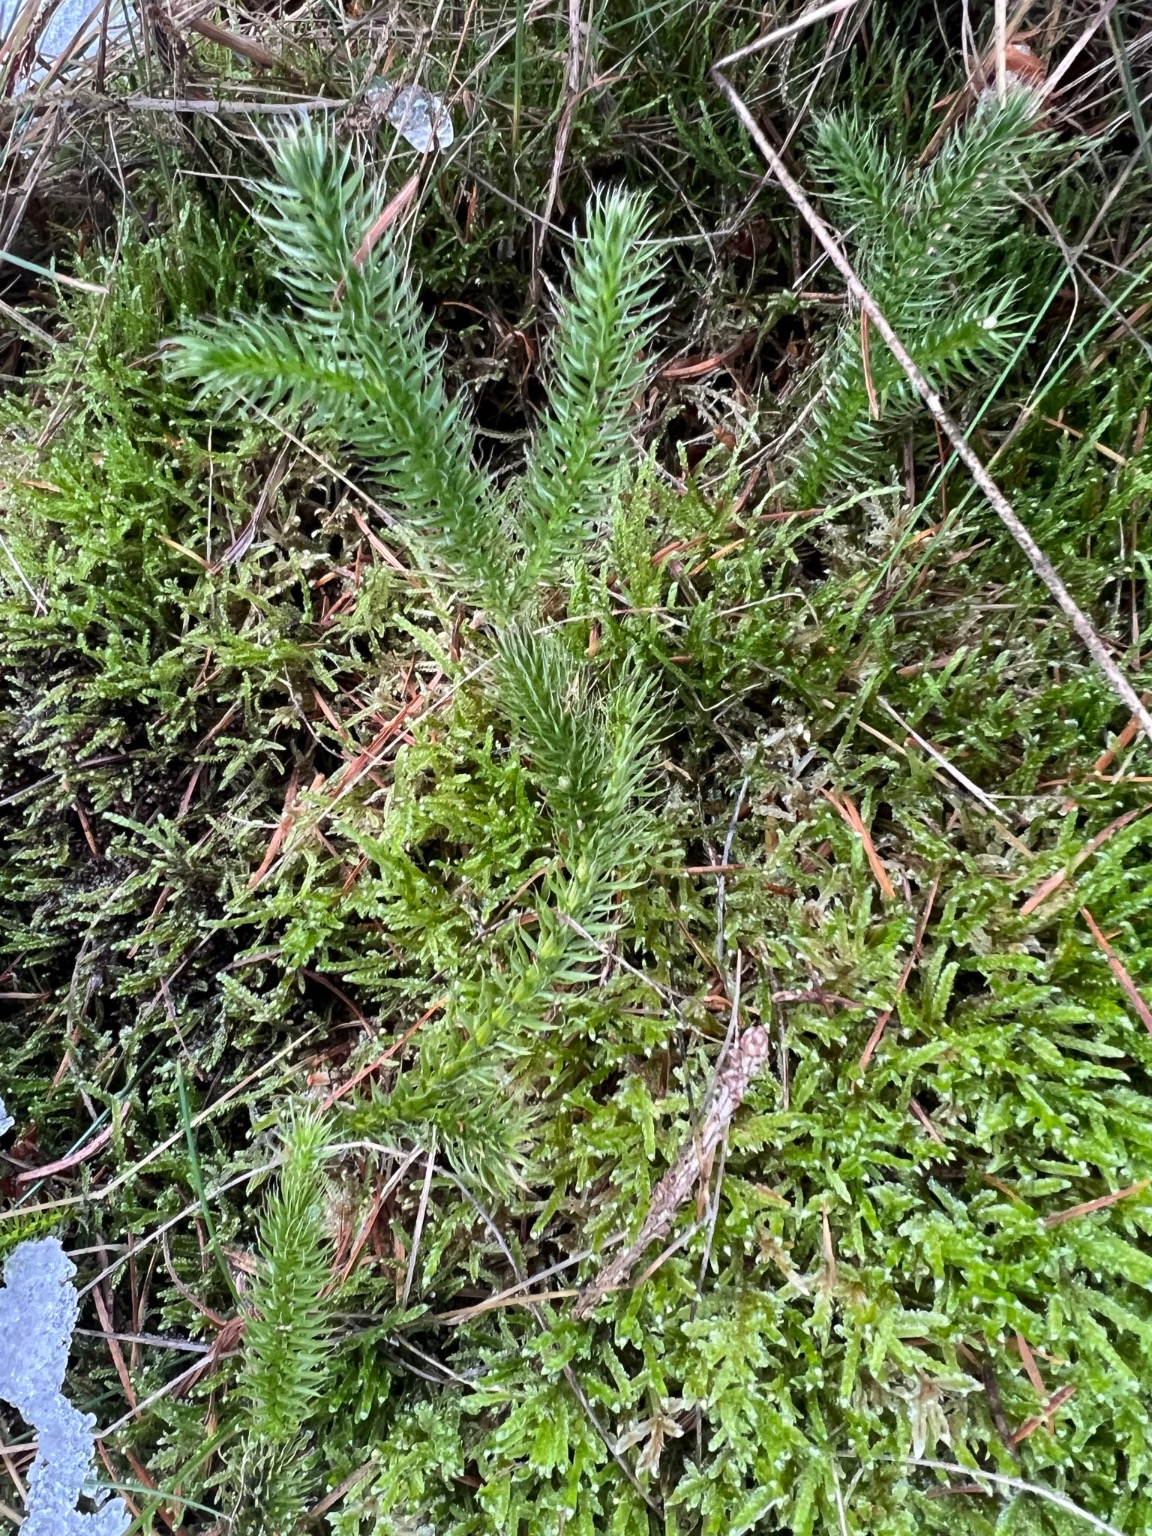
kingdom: Plantae
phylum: Tracheophyta
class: Lycopodiopsida
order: Lycopodiales
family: Lycopodiaceae
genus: Lycopodium
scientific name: Lycopodium clavatum
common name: Almindelig ulvefod
